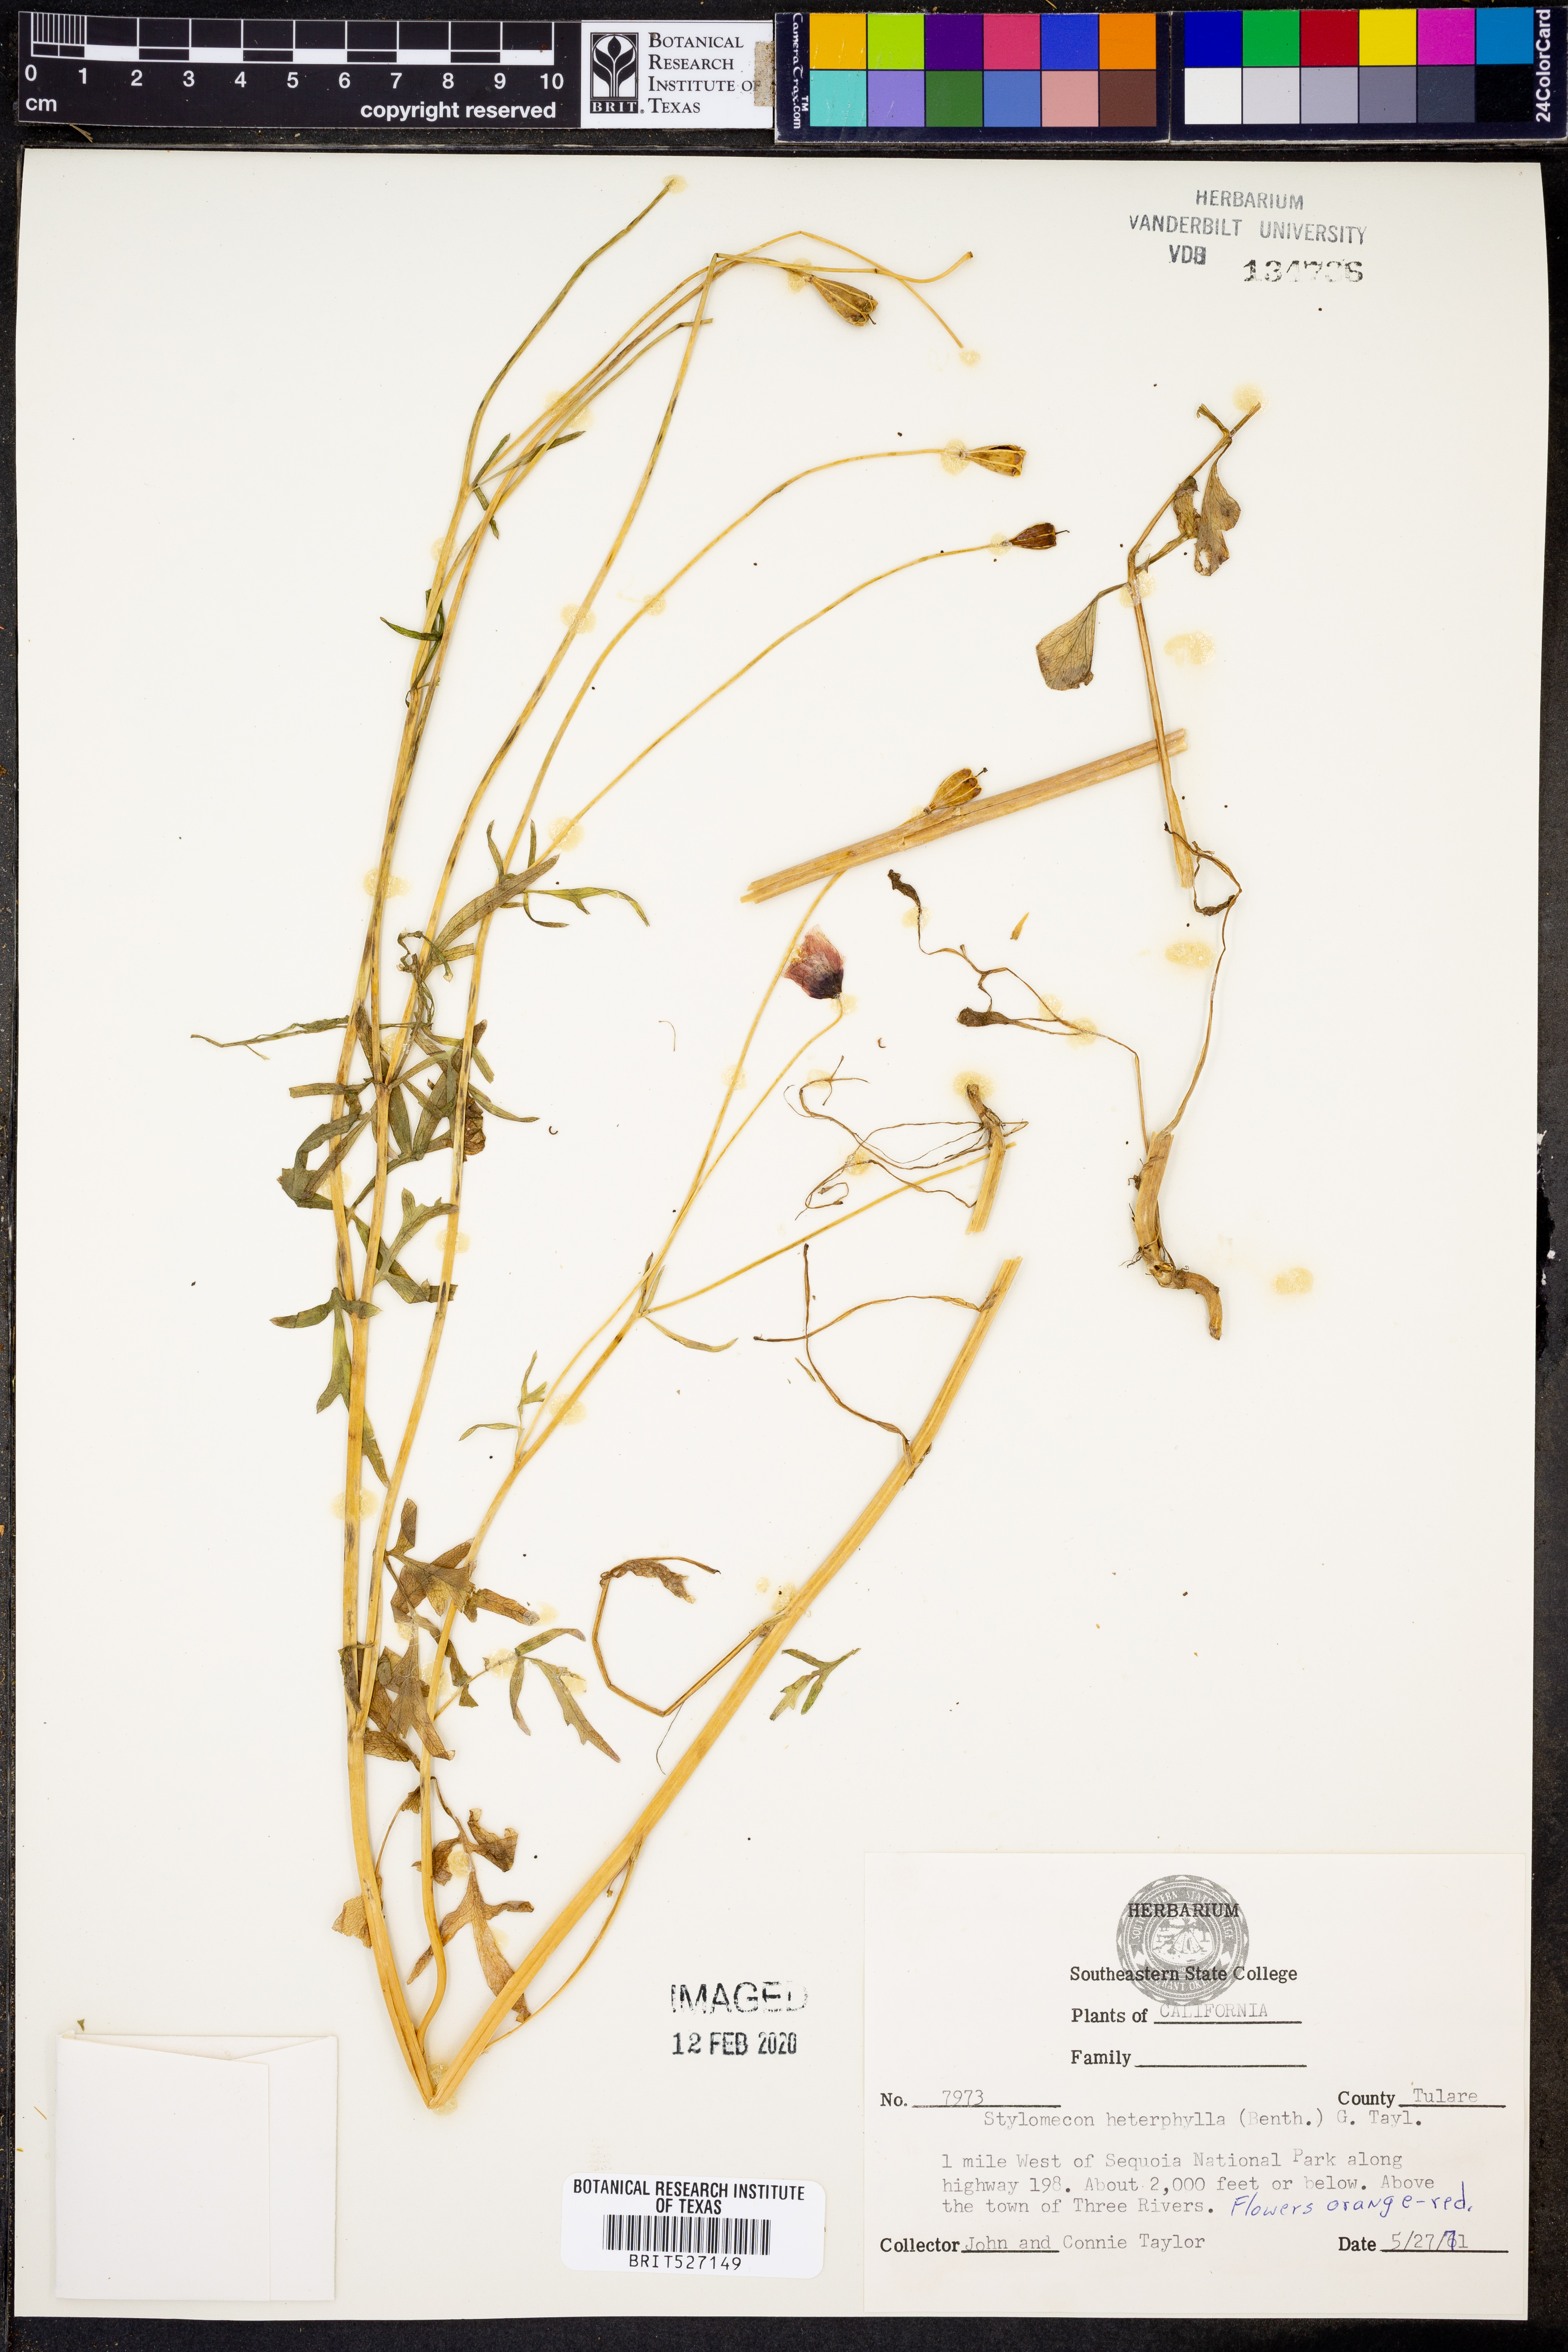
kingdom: Plantae
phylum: Tracheophyta
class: Magnoliopsida
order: Ranunculales
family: Papaveraceae
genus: Stylomecon
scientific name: Stylomecon heterophylla
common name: Flaming-poppy
